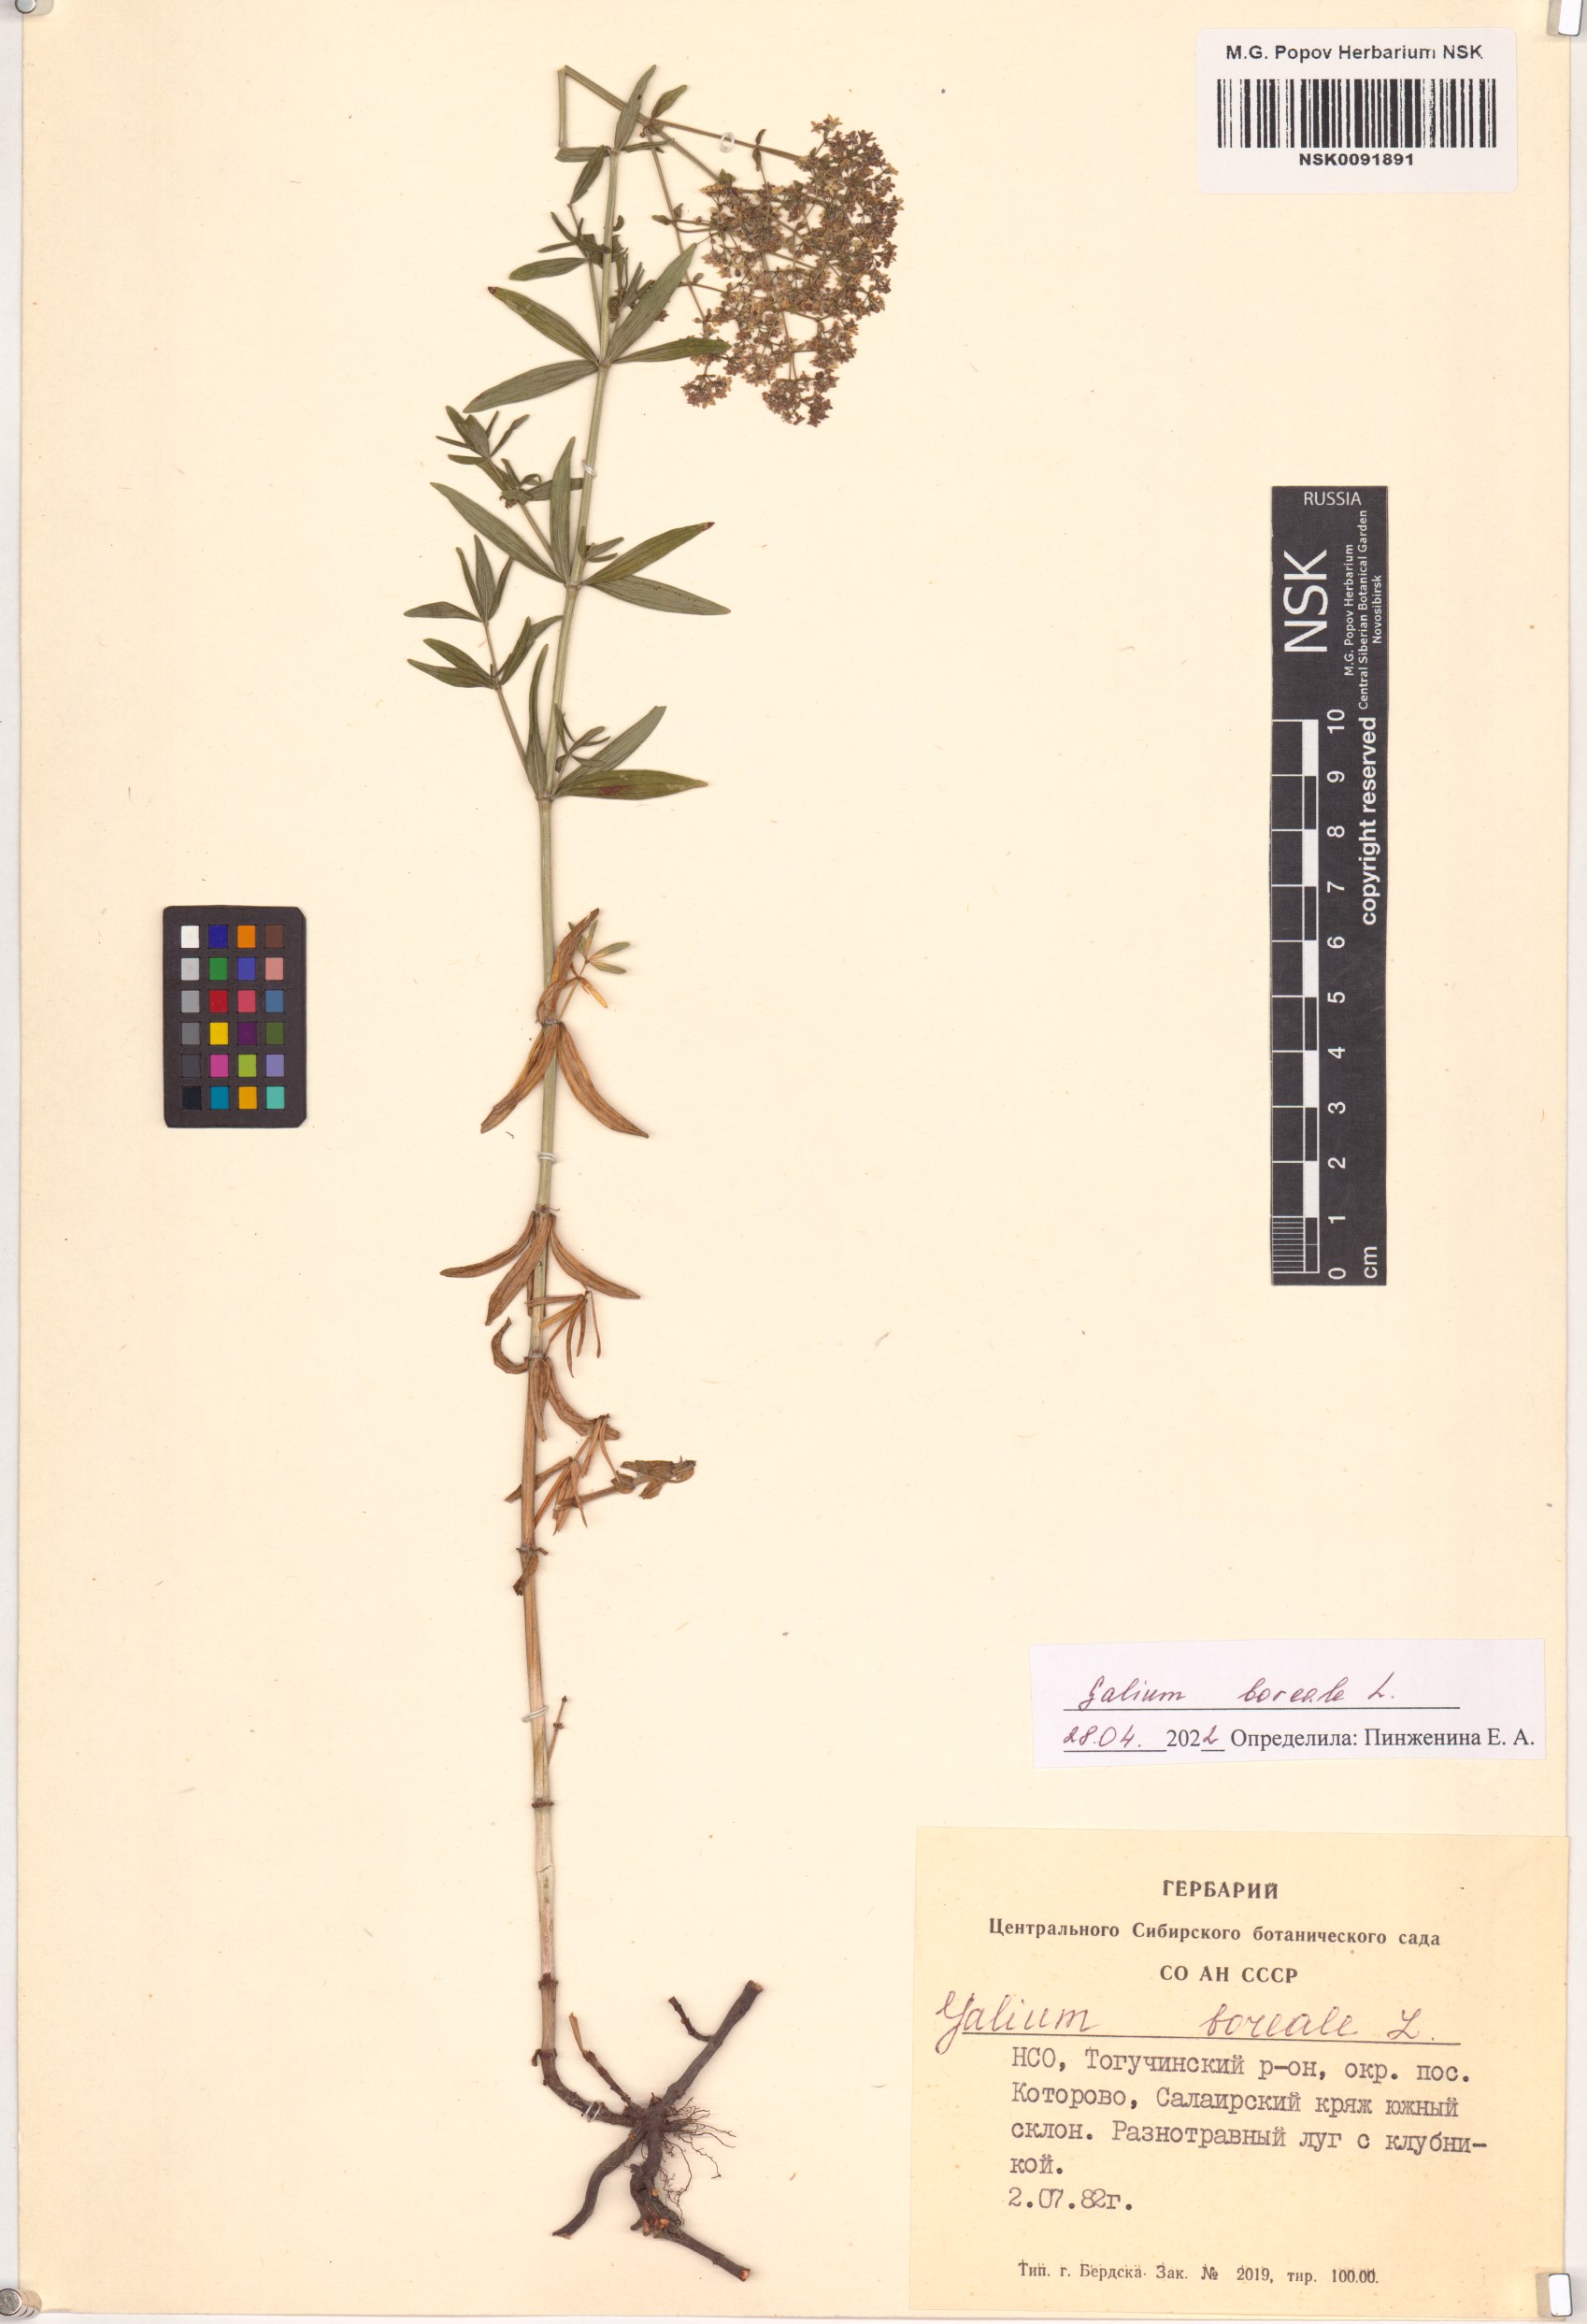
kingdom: Plantae
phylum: Tracheophyta
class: Magnoliopsida
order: Gentianales
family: Rubiaceae
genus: Galium
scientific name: Galium boreale
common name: Northern bedstraw
